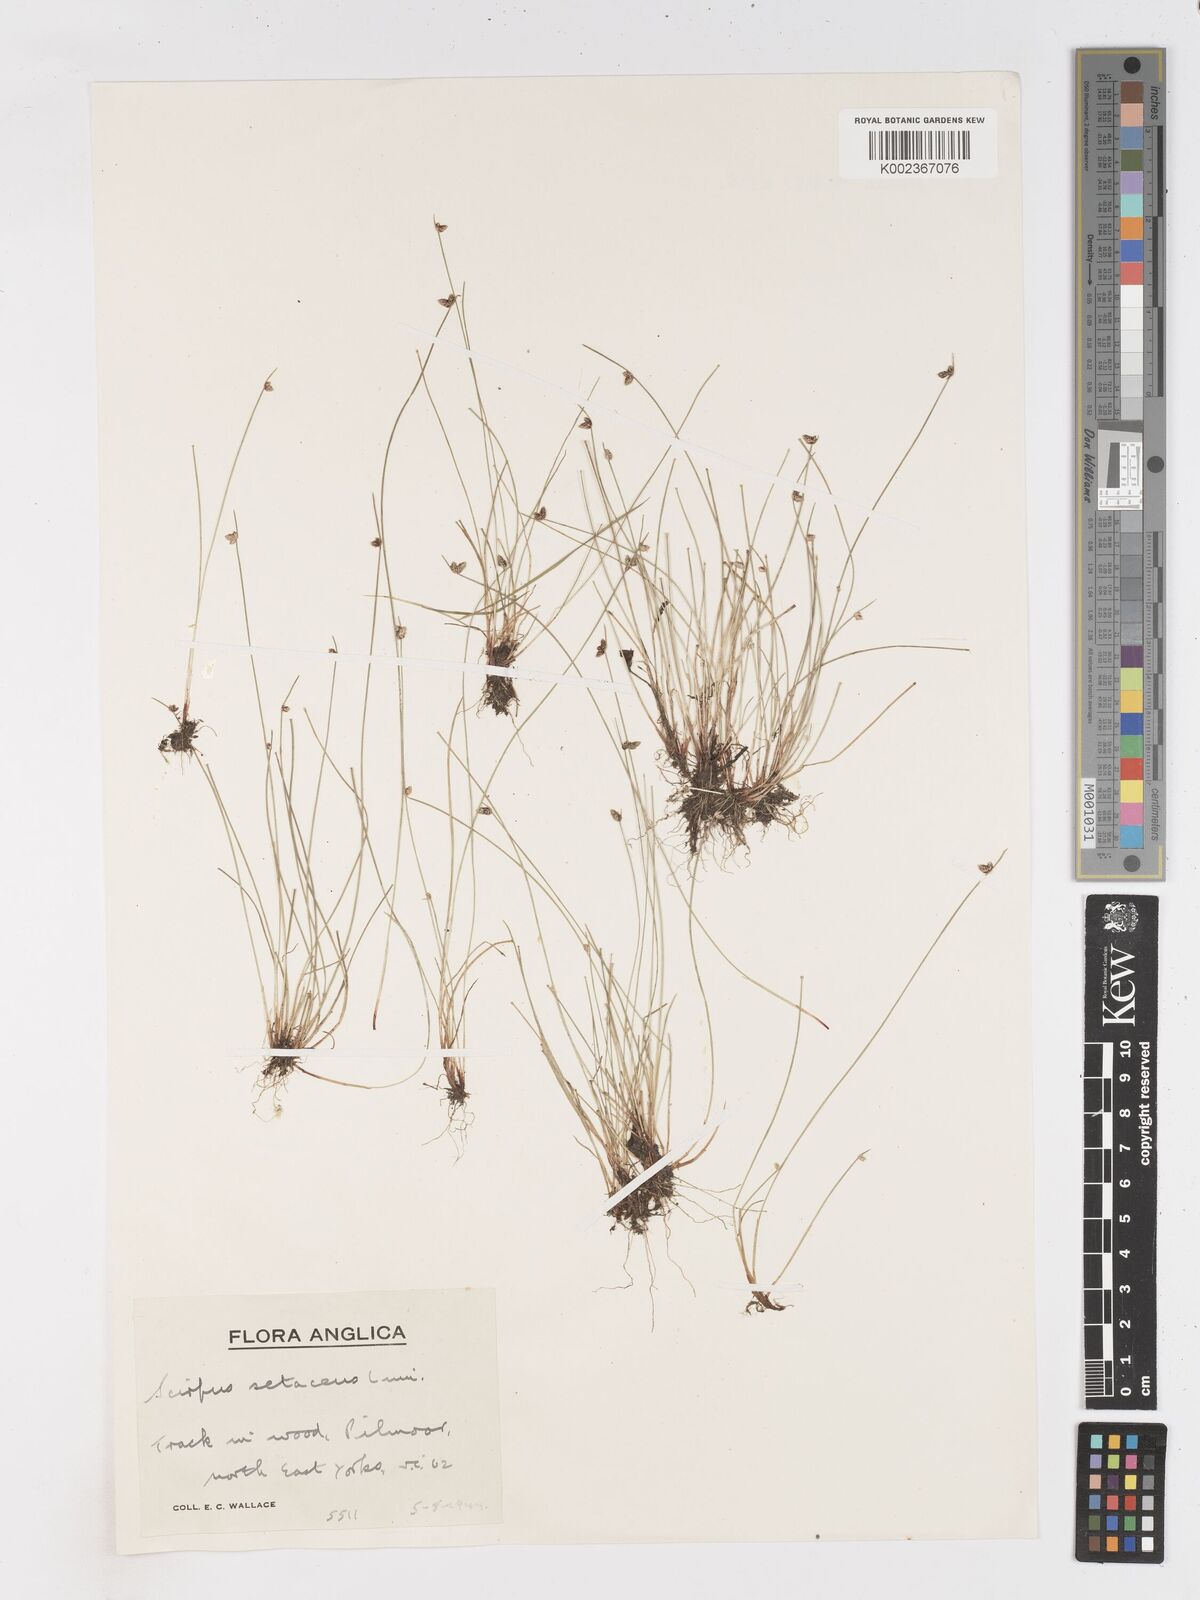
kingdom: Plantae
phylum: Tracheophyta
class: Liliopsida
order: Poales
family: Cyperaceae
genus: Isolepis
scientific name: Isolepis setacea
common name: Bristle club-rush
